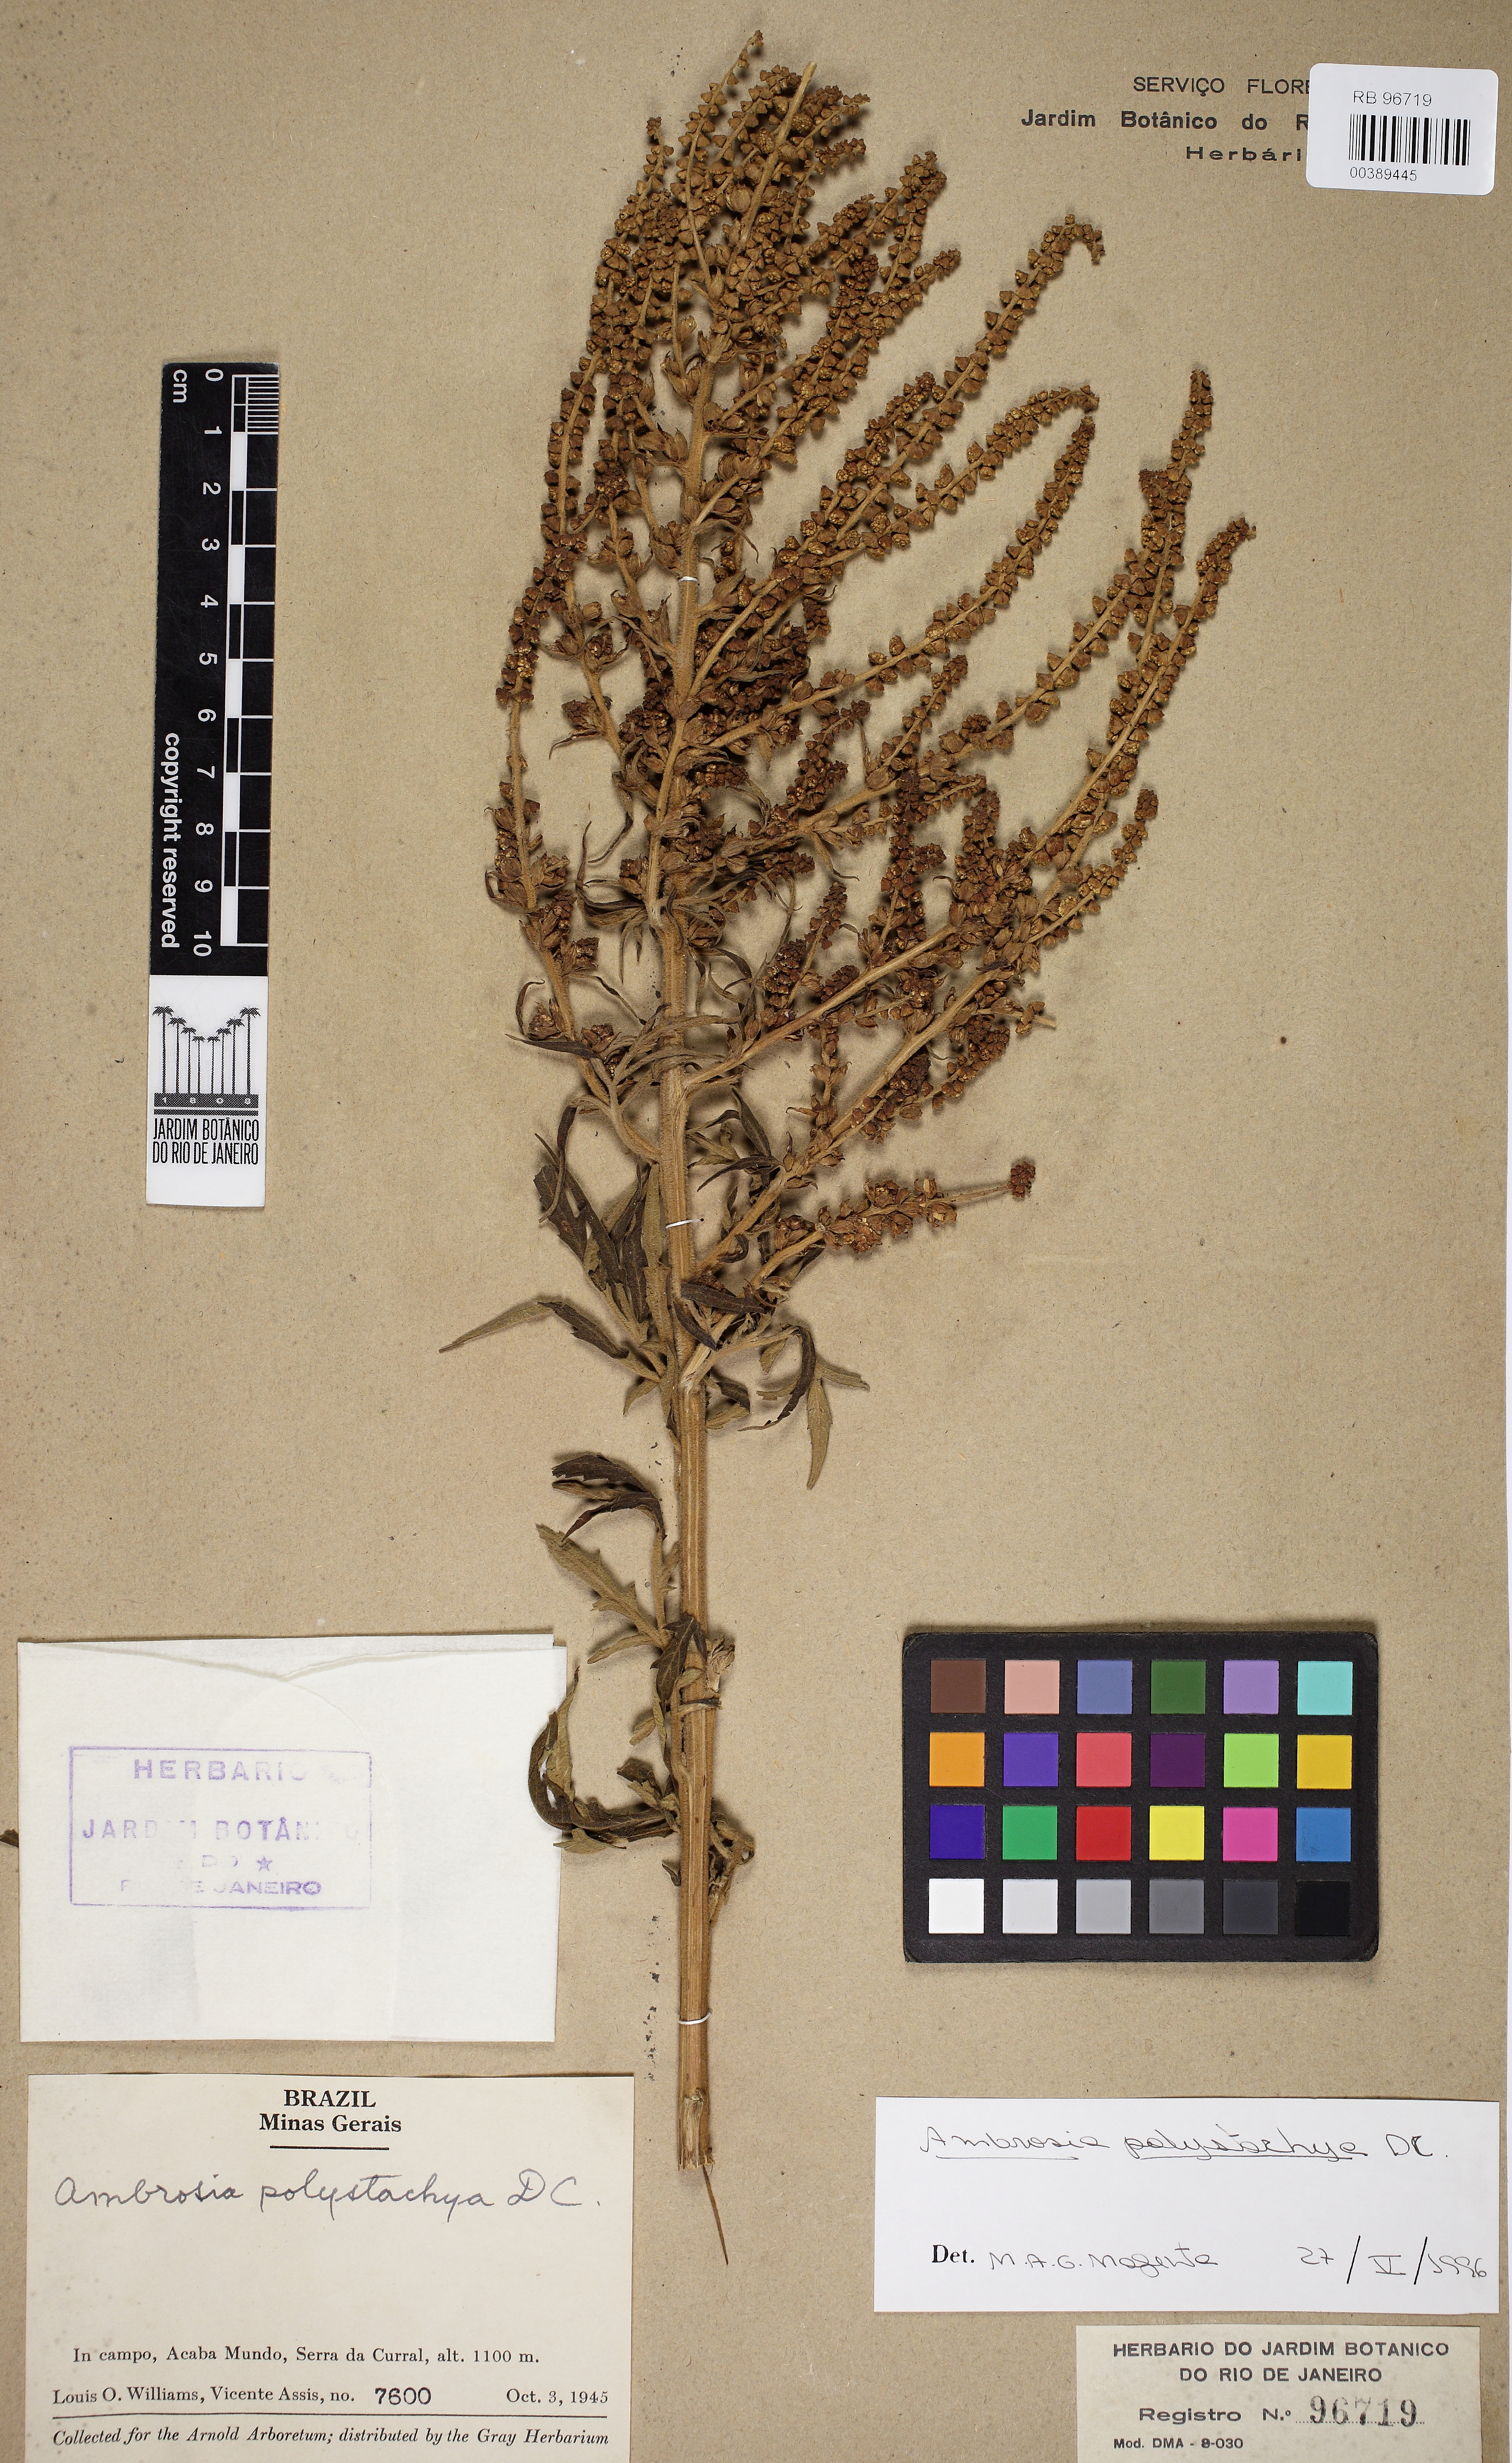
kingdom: Plantae
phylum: Tracheophyta
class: Magnoliopsida
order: Asterales
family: Asteraceae
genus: Ambrosia
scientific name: Ambrosia polystachya
